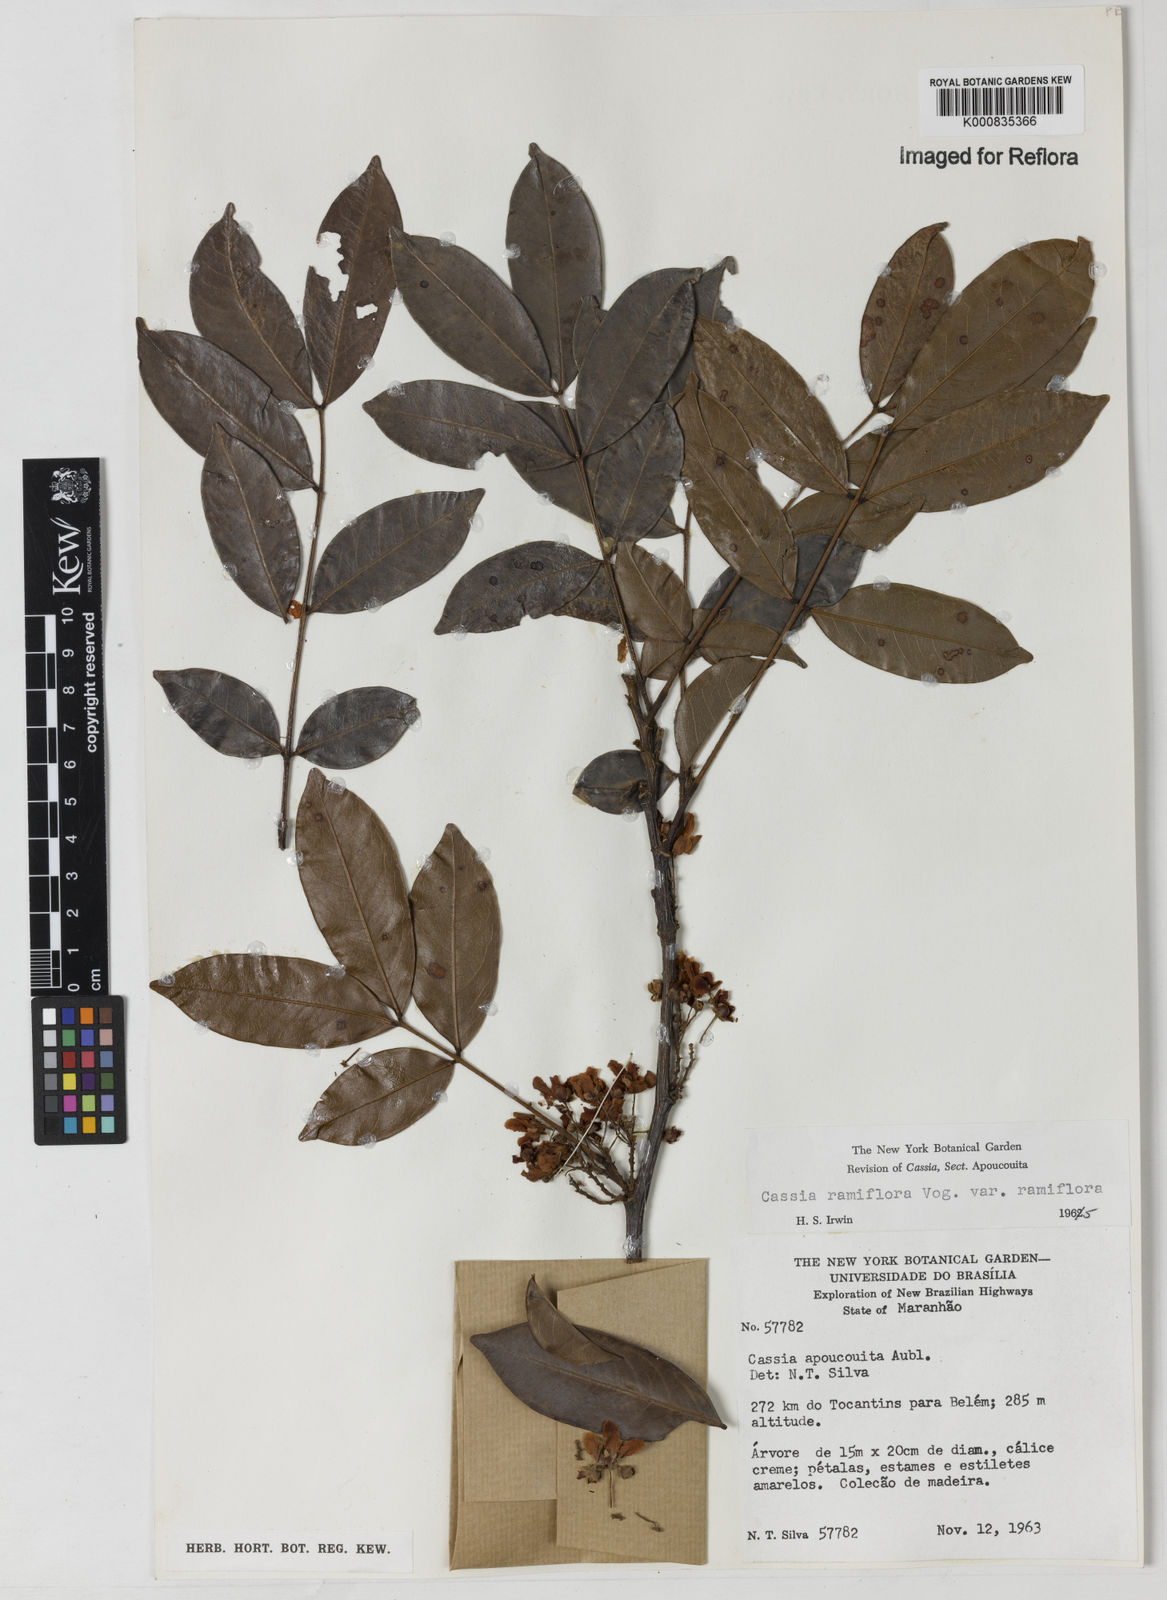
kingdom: Plantae
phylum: Tracheophyta
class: Magnoliopsida
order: Fabales
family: Fabaceae
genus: Chamaecrista
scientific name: Chamaecrista ensiformis
